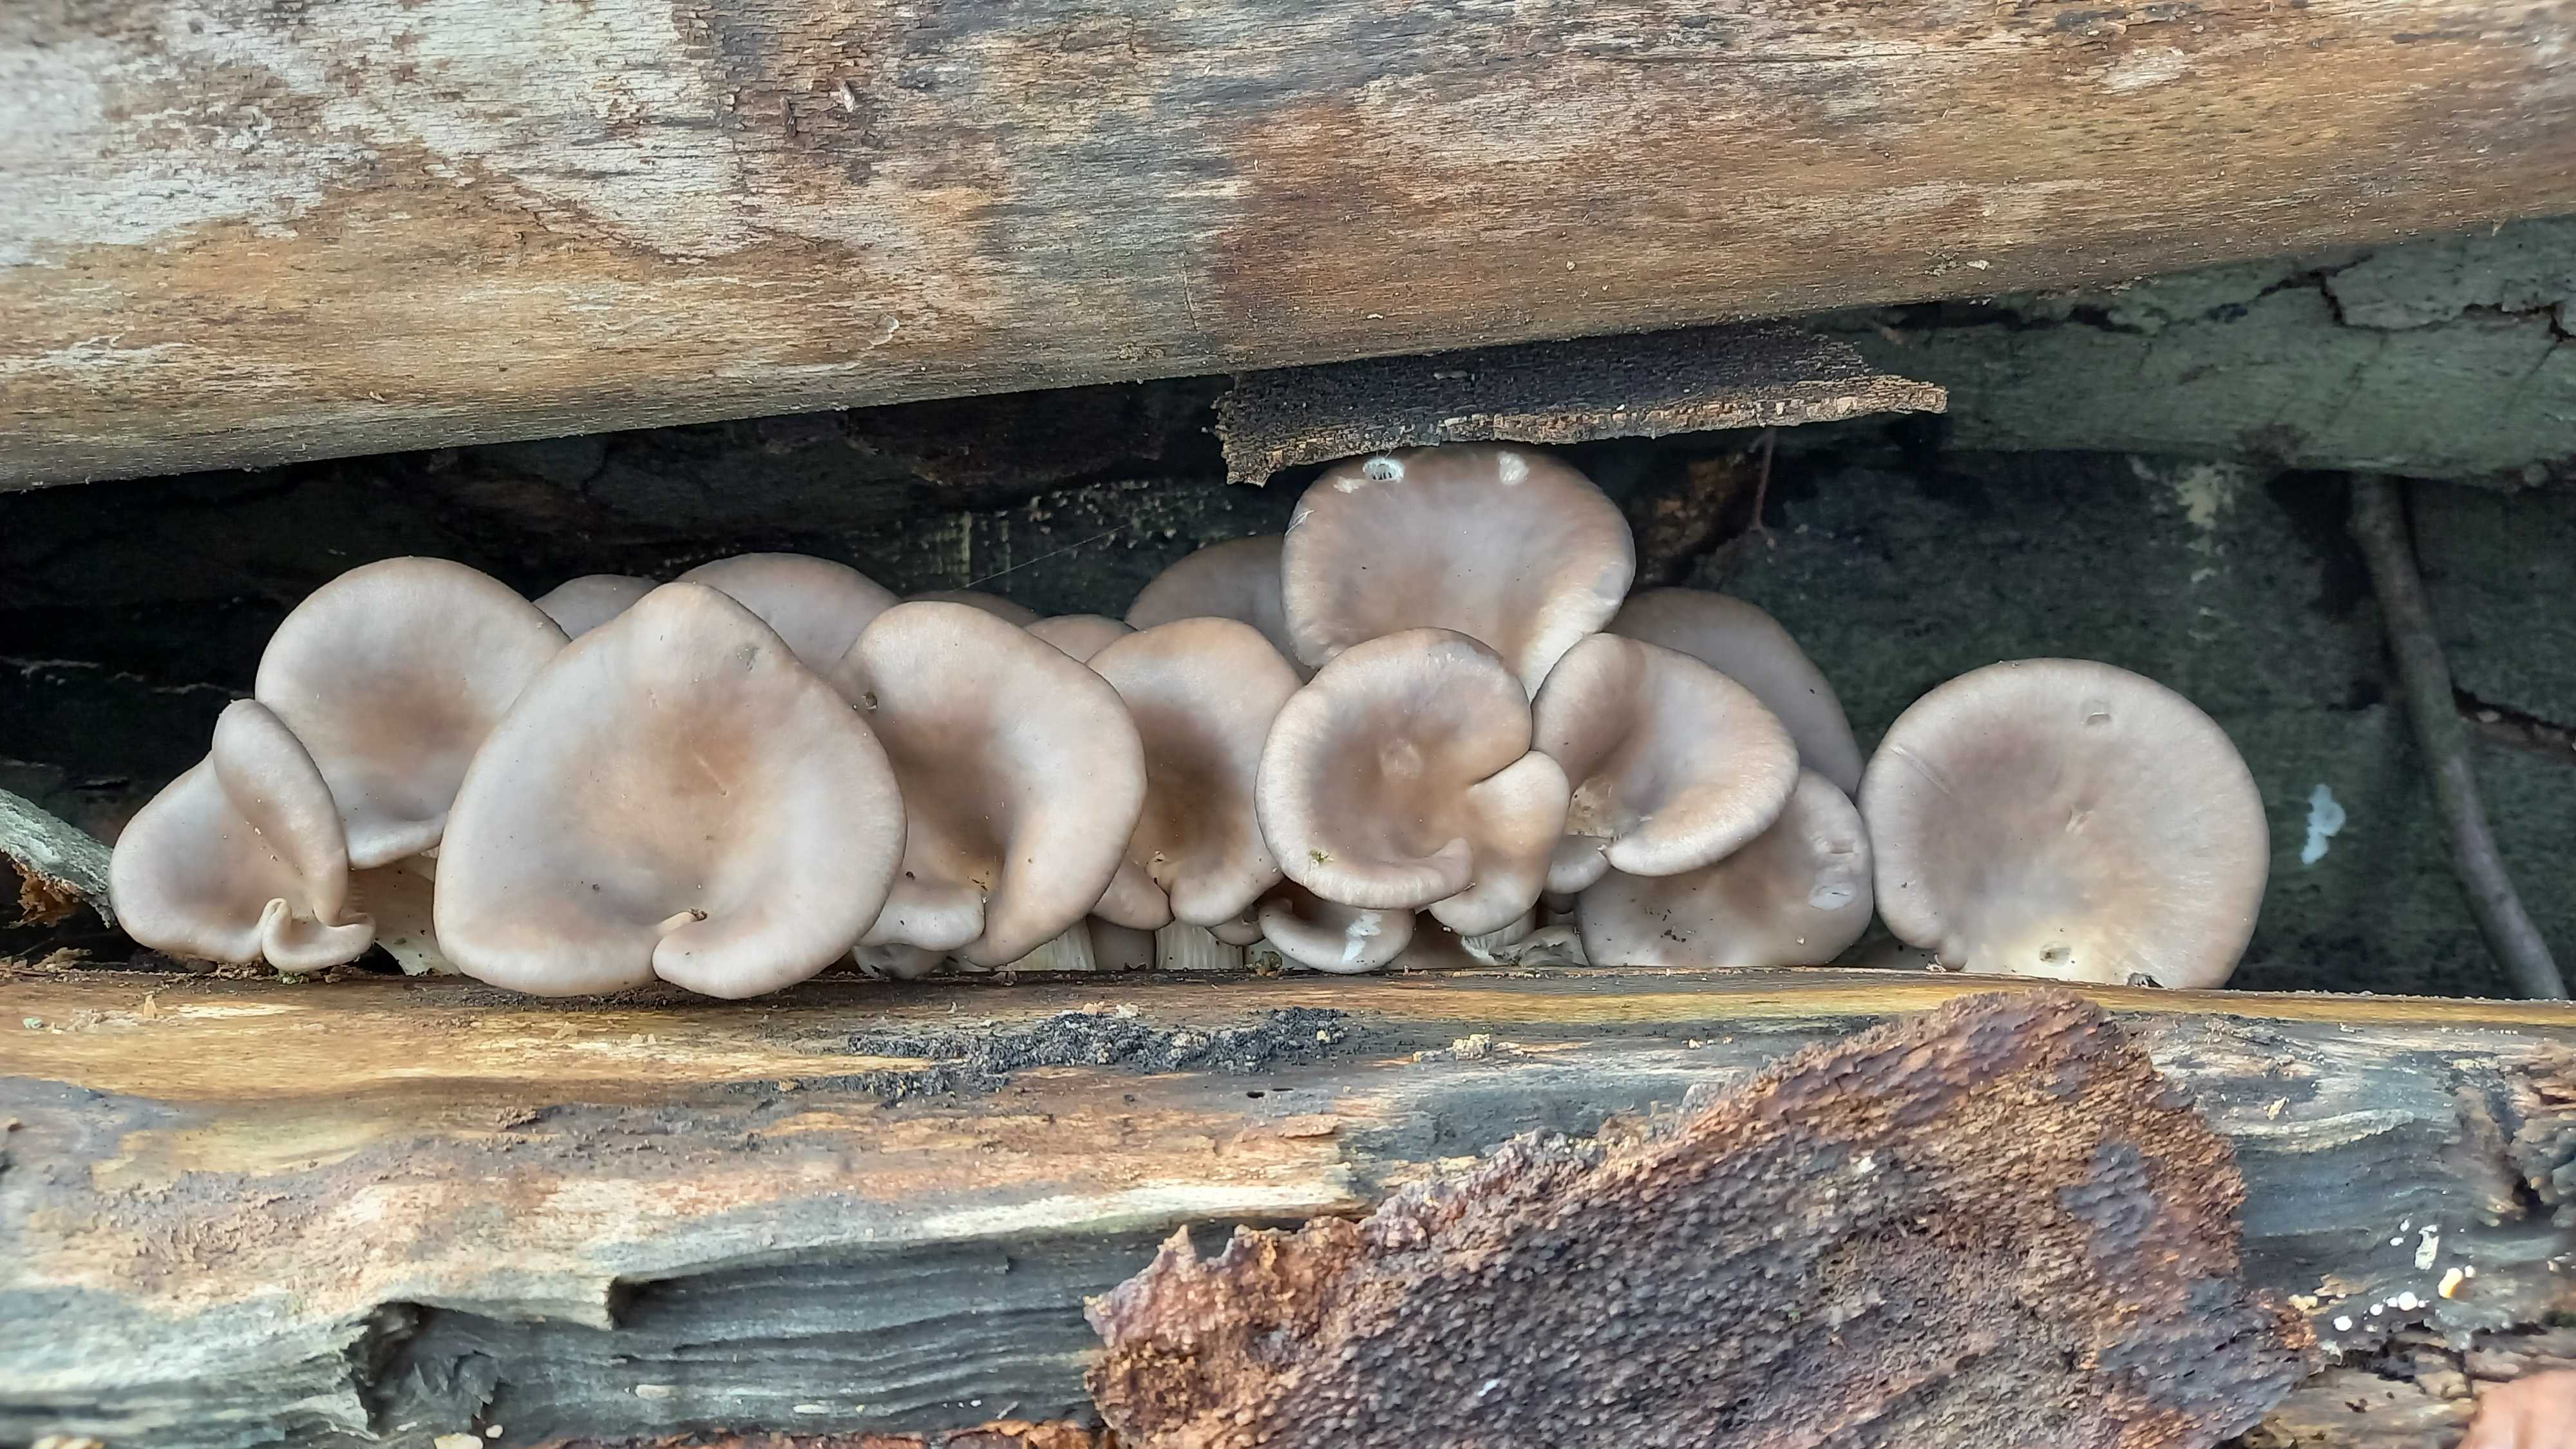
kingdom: Fungi
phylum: Basidiomycota
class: Agaricomycetes
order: Agaricales
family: Pleurotaceae
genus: Pleurotus
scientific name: Pleurotus ostreatus
